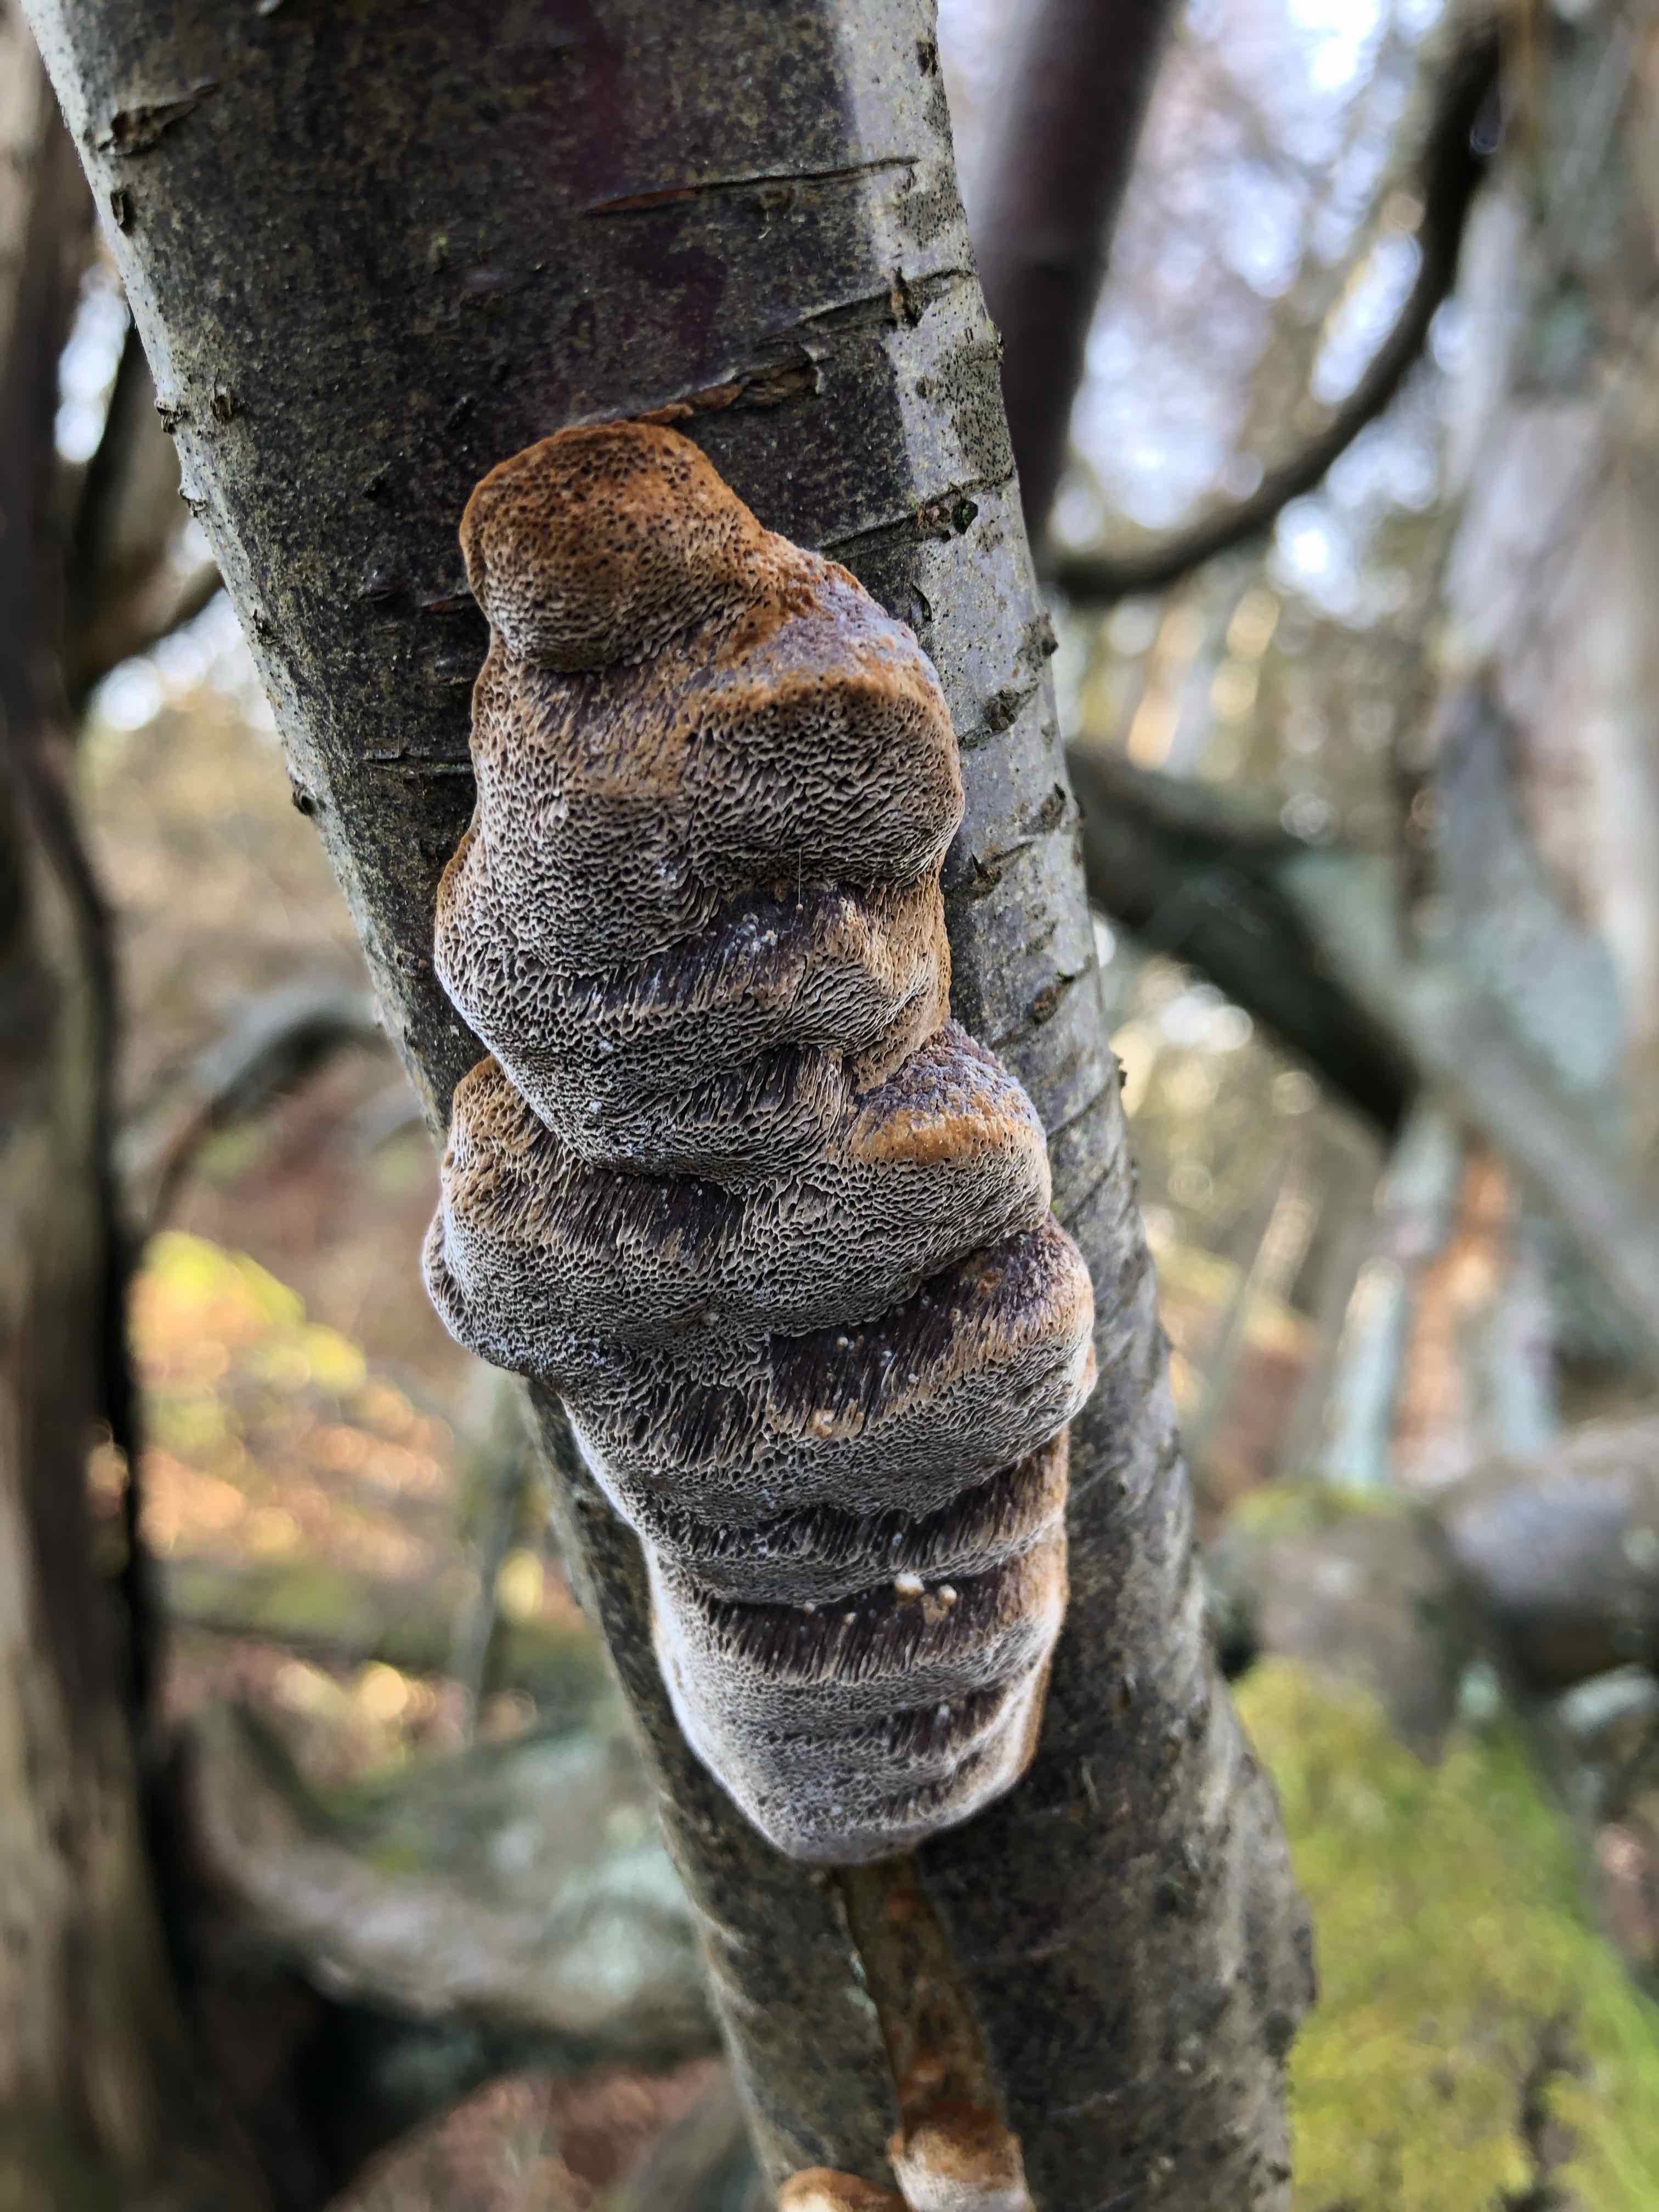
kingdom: Fungi
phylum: Basidiomycota
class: Agaricomycetes
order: Hymenochaetales
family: Hymenochaetaceae
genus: Phellinus
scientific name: Phellinus pomaceus
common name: blomme-ildporesvamp
